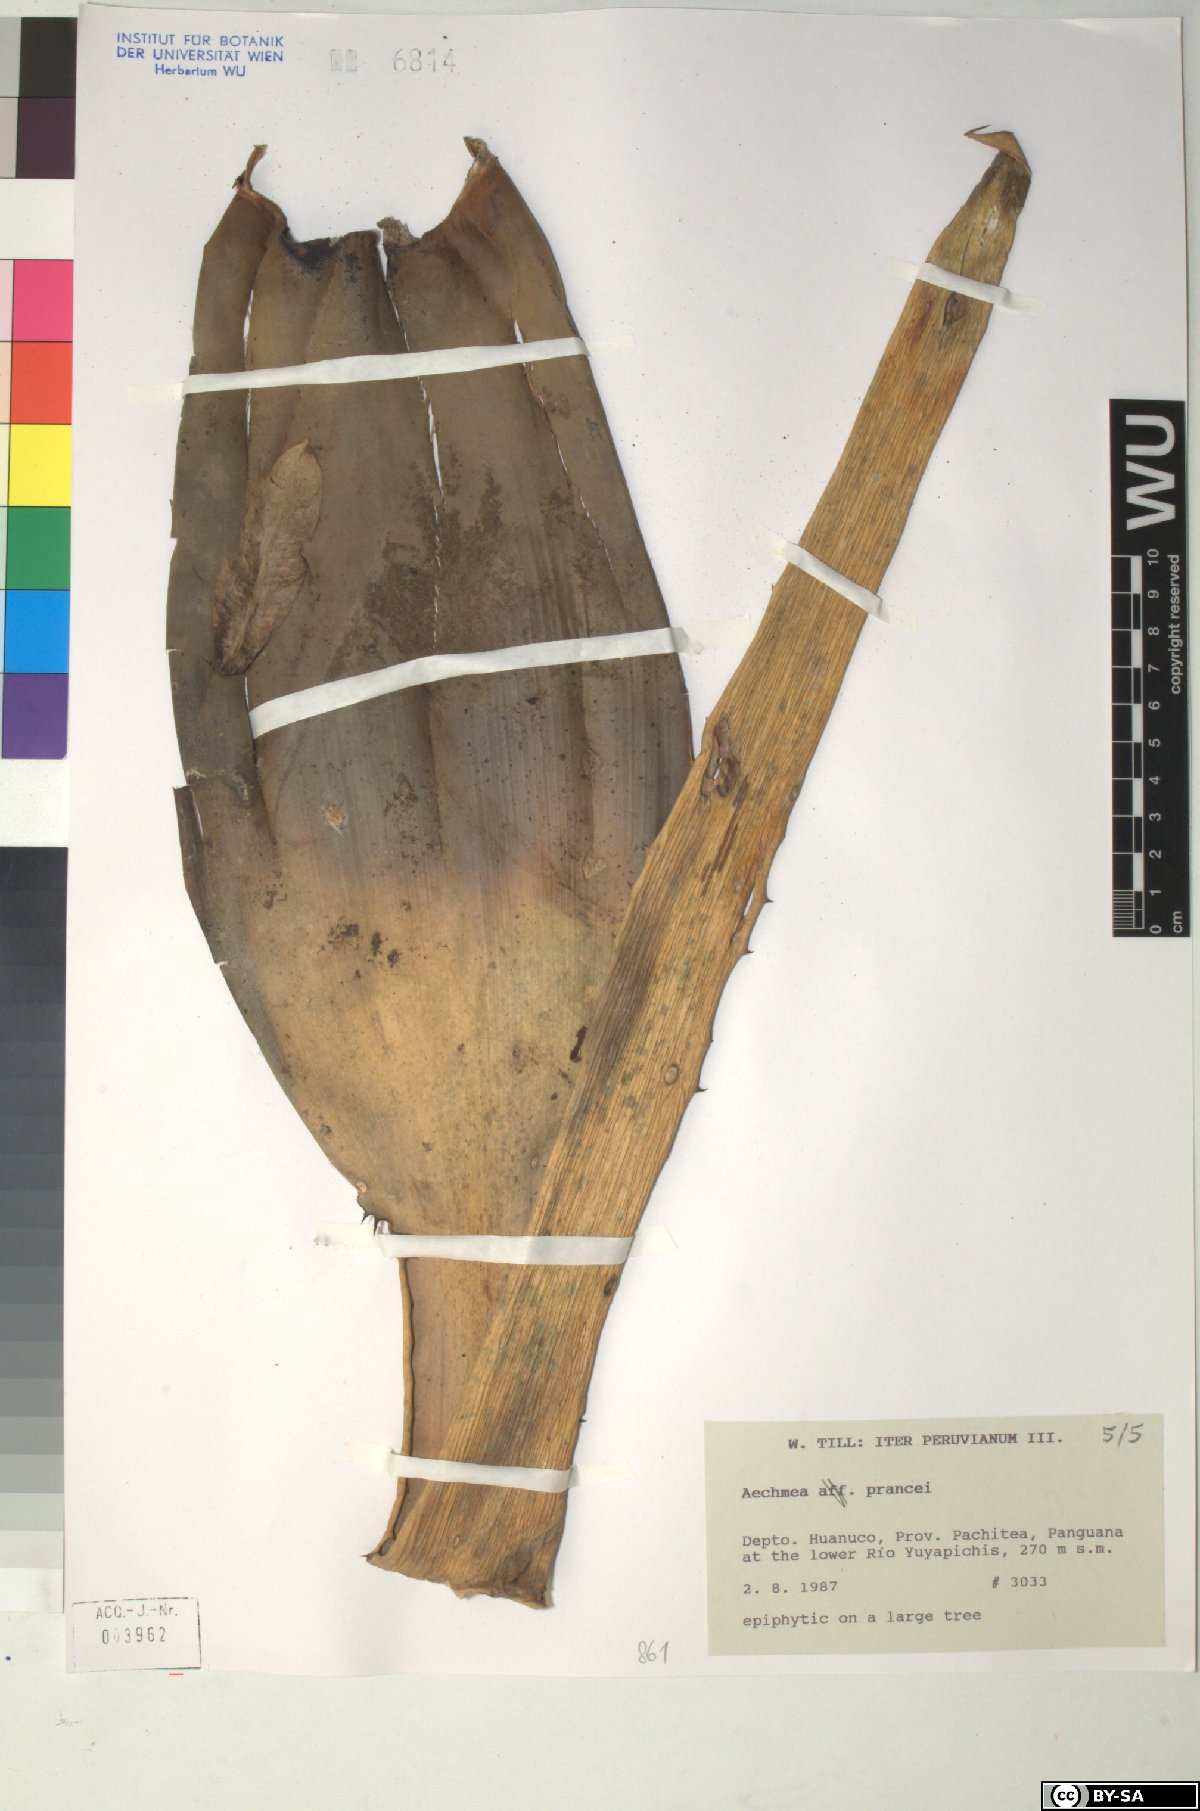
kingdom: Plantae
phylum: Tracheophyta
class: Liliopsida
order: Poales
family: Bromeliaceae
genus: Aechmea
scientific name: Aechmea prancei
